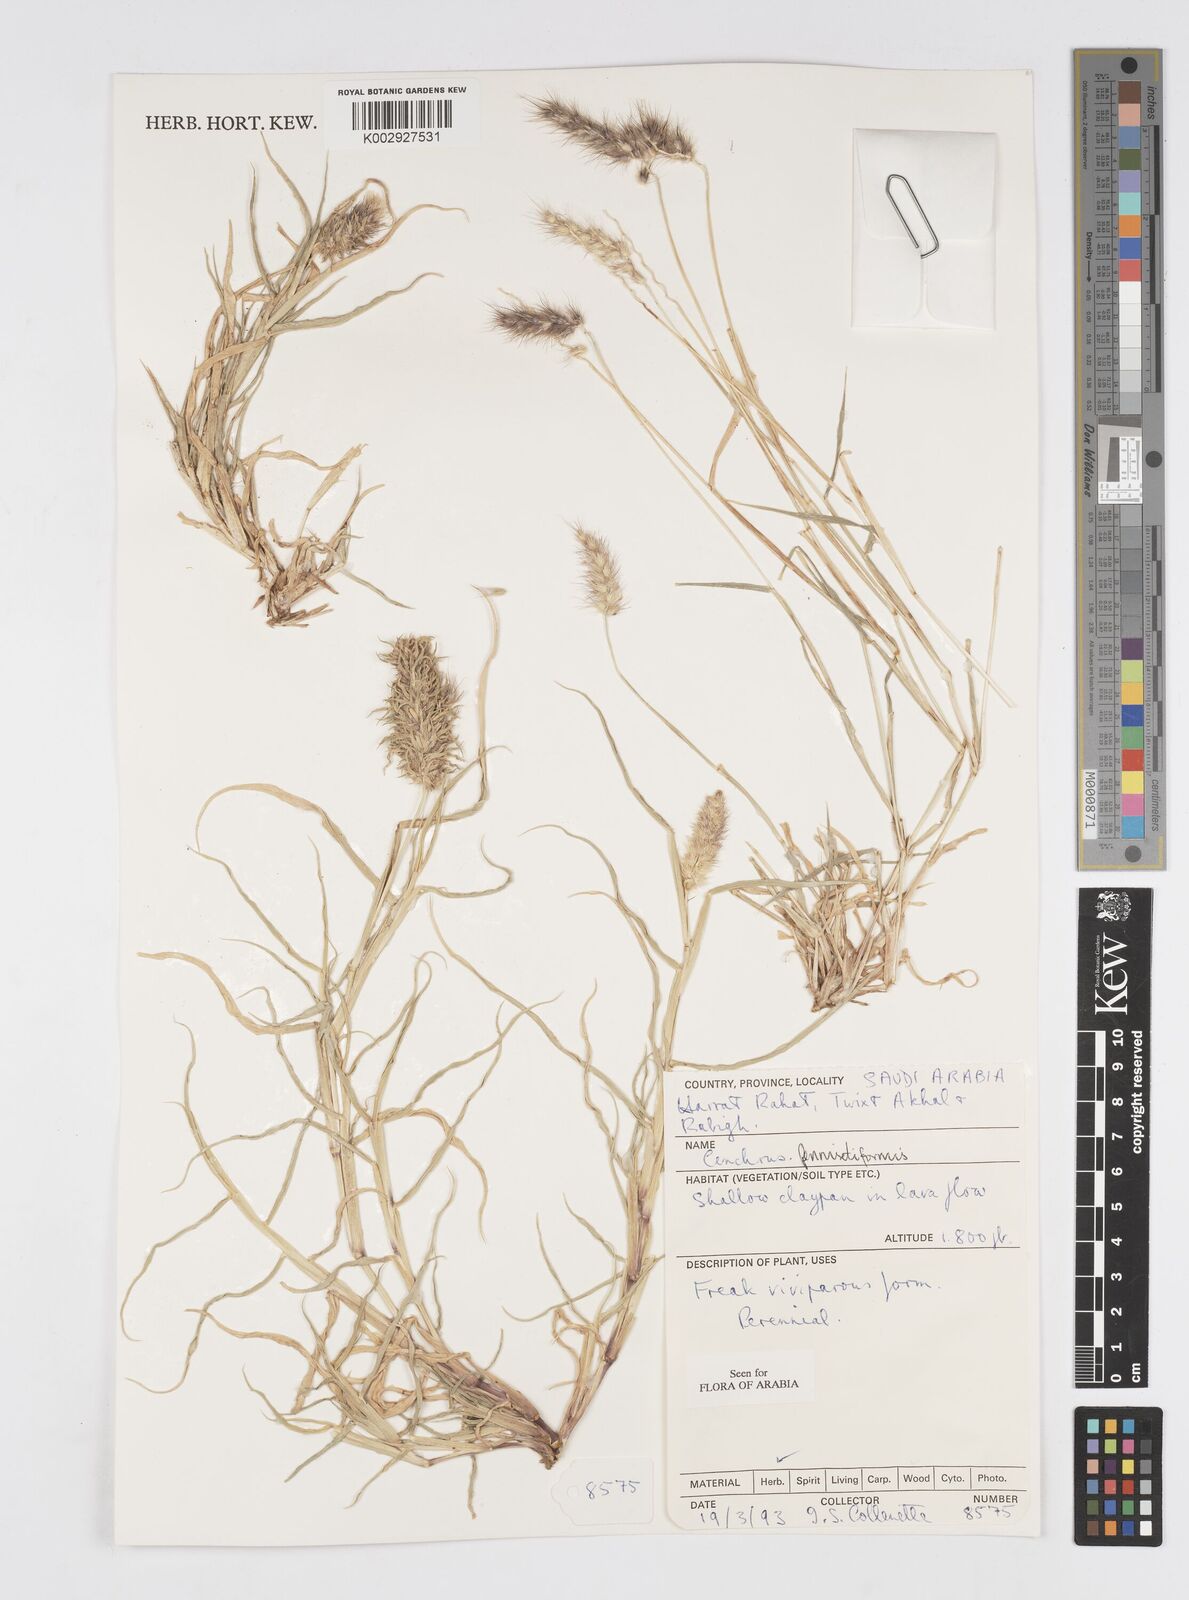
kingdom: Plantae
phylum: Tracheophyta
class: Liliopsida
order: Poales
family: Poaceae
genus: Cenchrus
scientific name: Cenchrus
